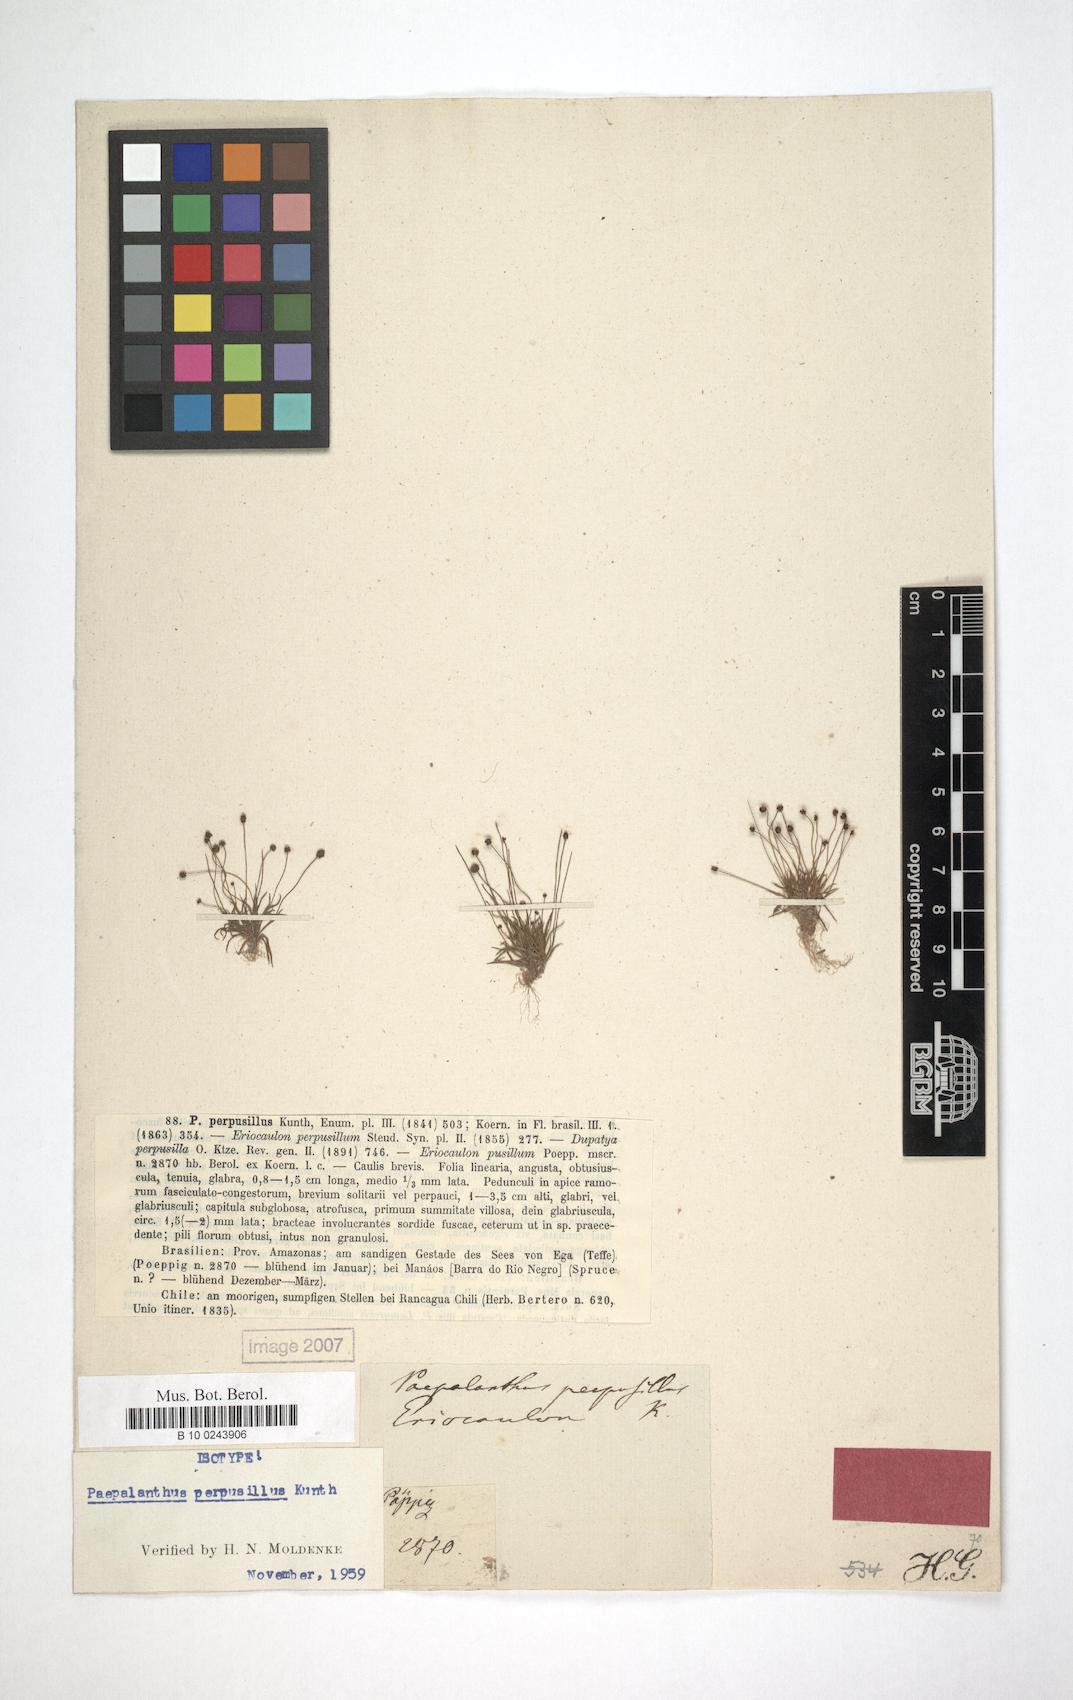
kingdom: Plantae
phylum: Tracheophyta
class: Liliopsida
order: Poales
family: Eriocaulaceae
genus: Paepalanthus
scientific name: Paepalanthus perpusillus
